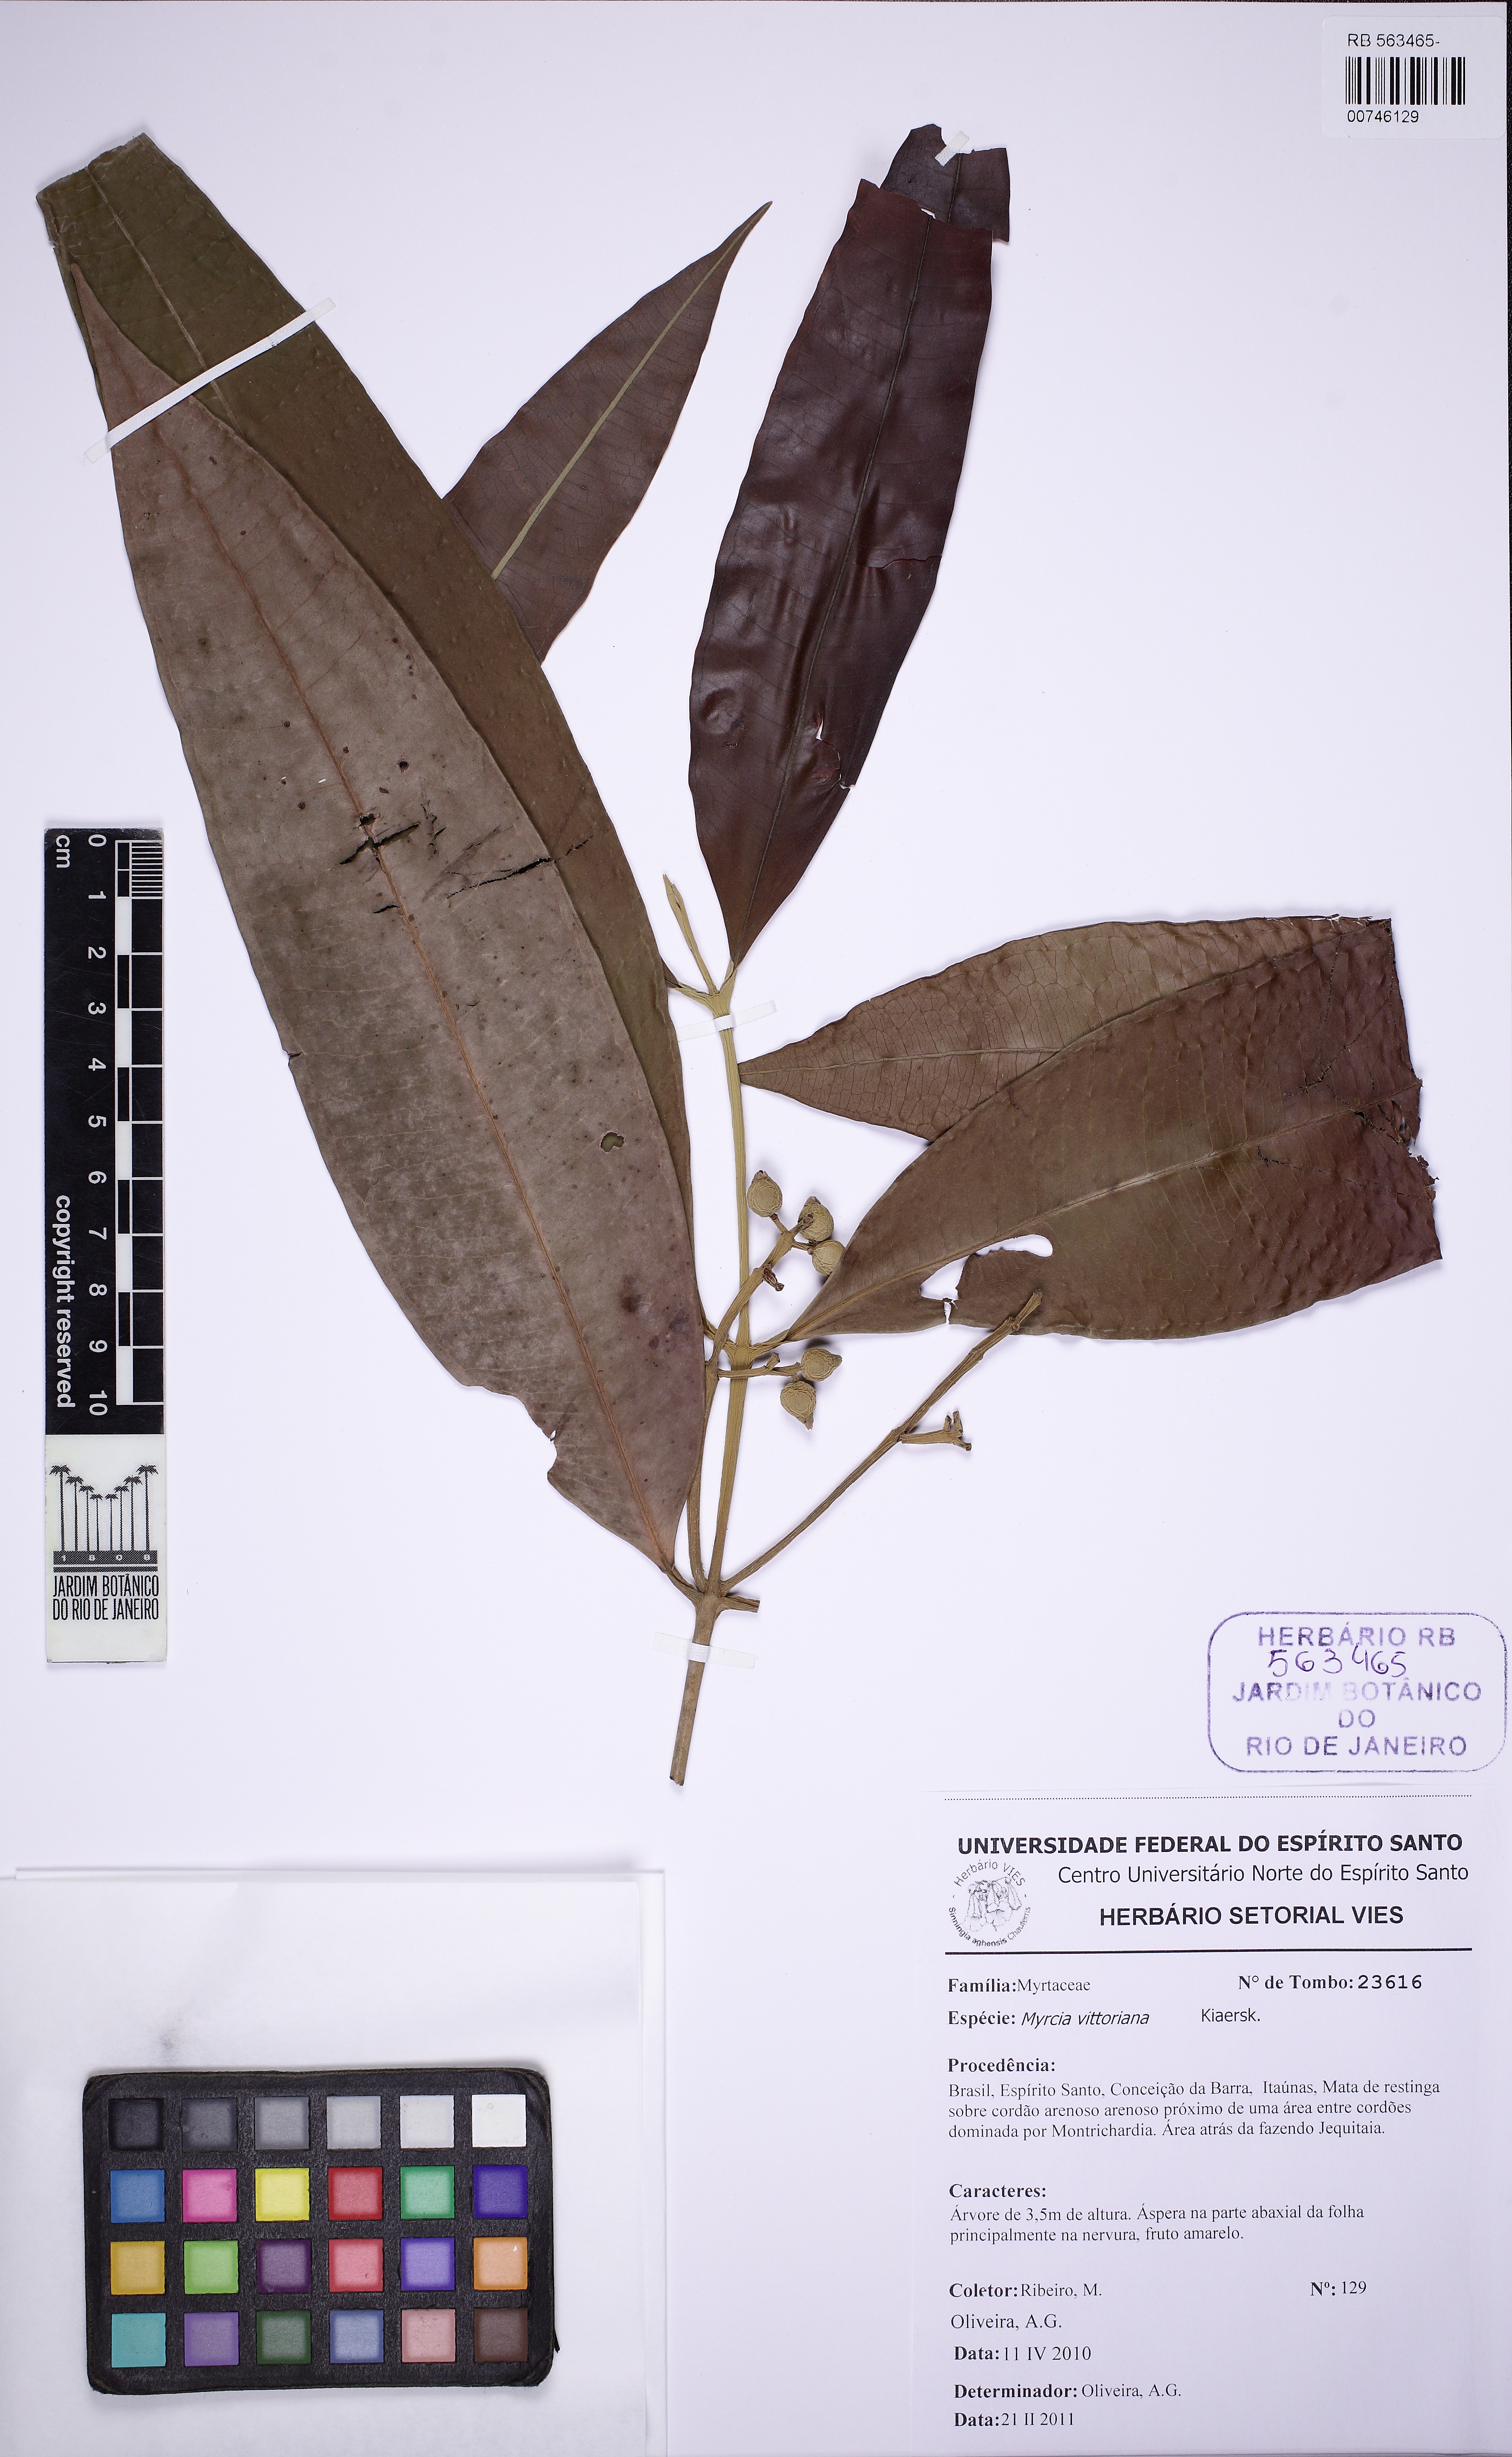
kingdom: Plantae
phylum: Tracheophyta
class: Magnoliopsida
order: Myrtales
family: Myrtaceae
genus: Myrcia
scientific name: Myrcia vittoriana
